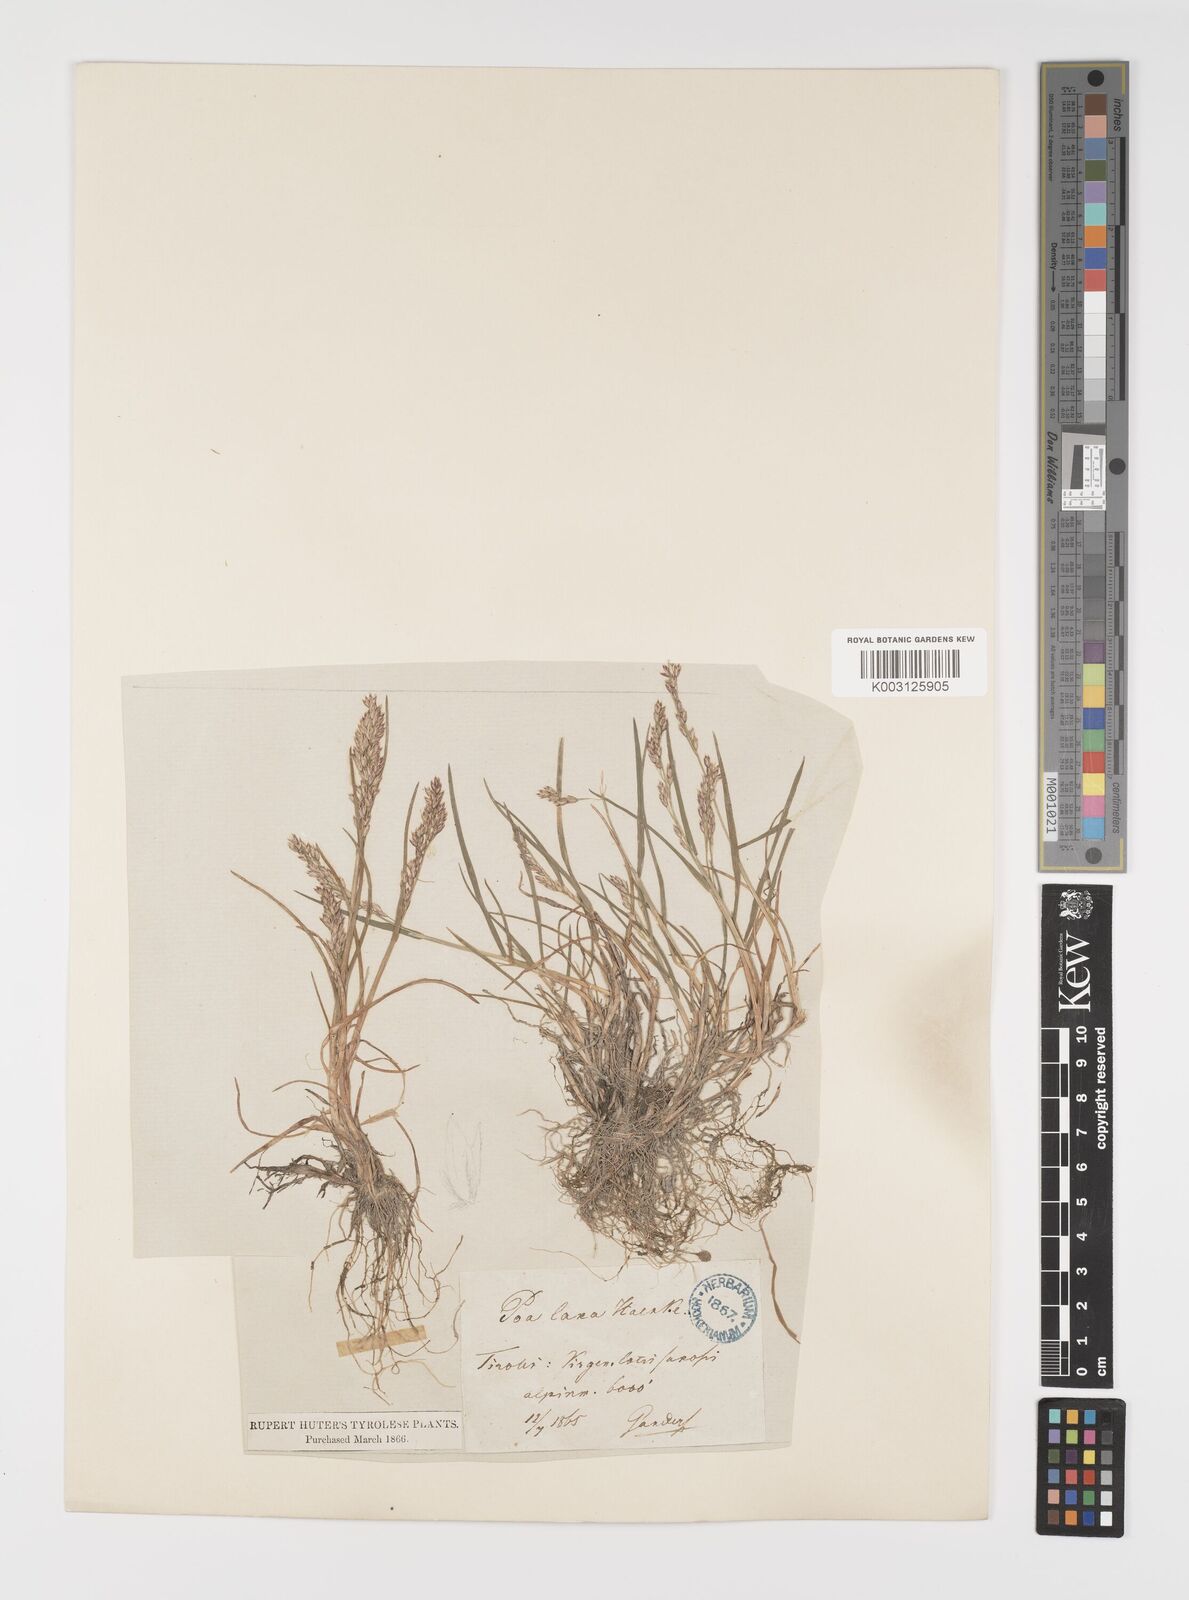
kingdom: Plantae
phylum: Tracheophyta
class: Liliopsida
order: Poales
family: Poaceae
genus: Poa
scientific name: Poa laxa
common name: Lax bluegrass
